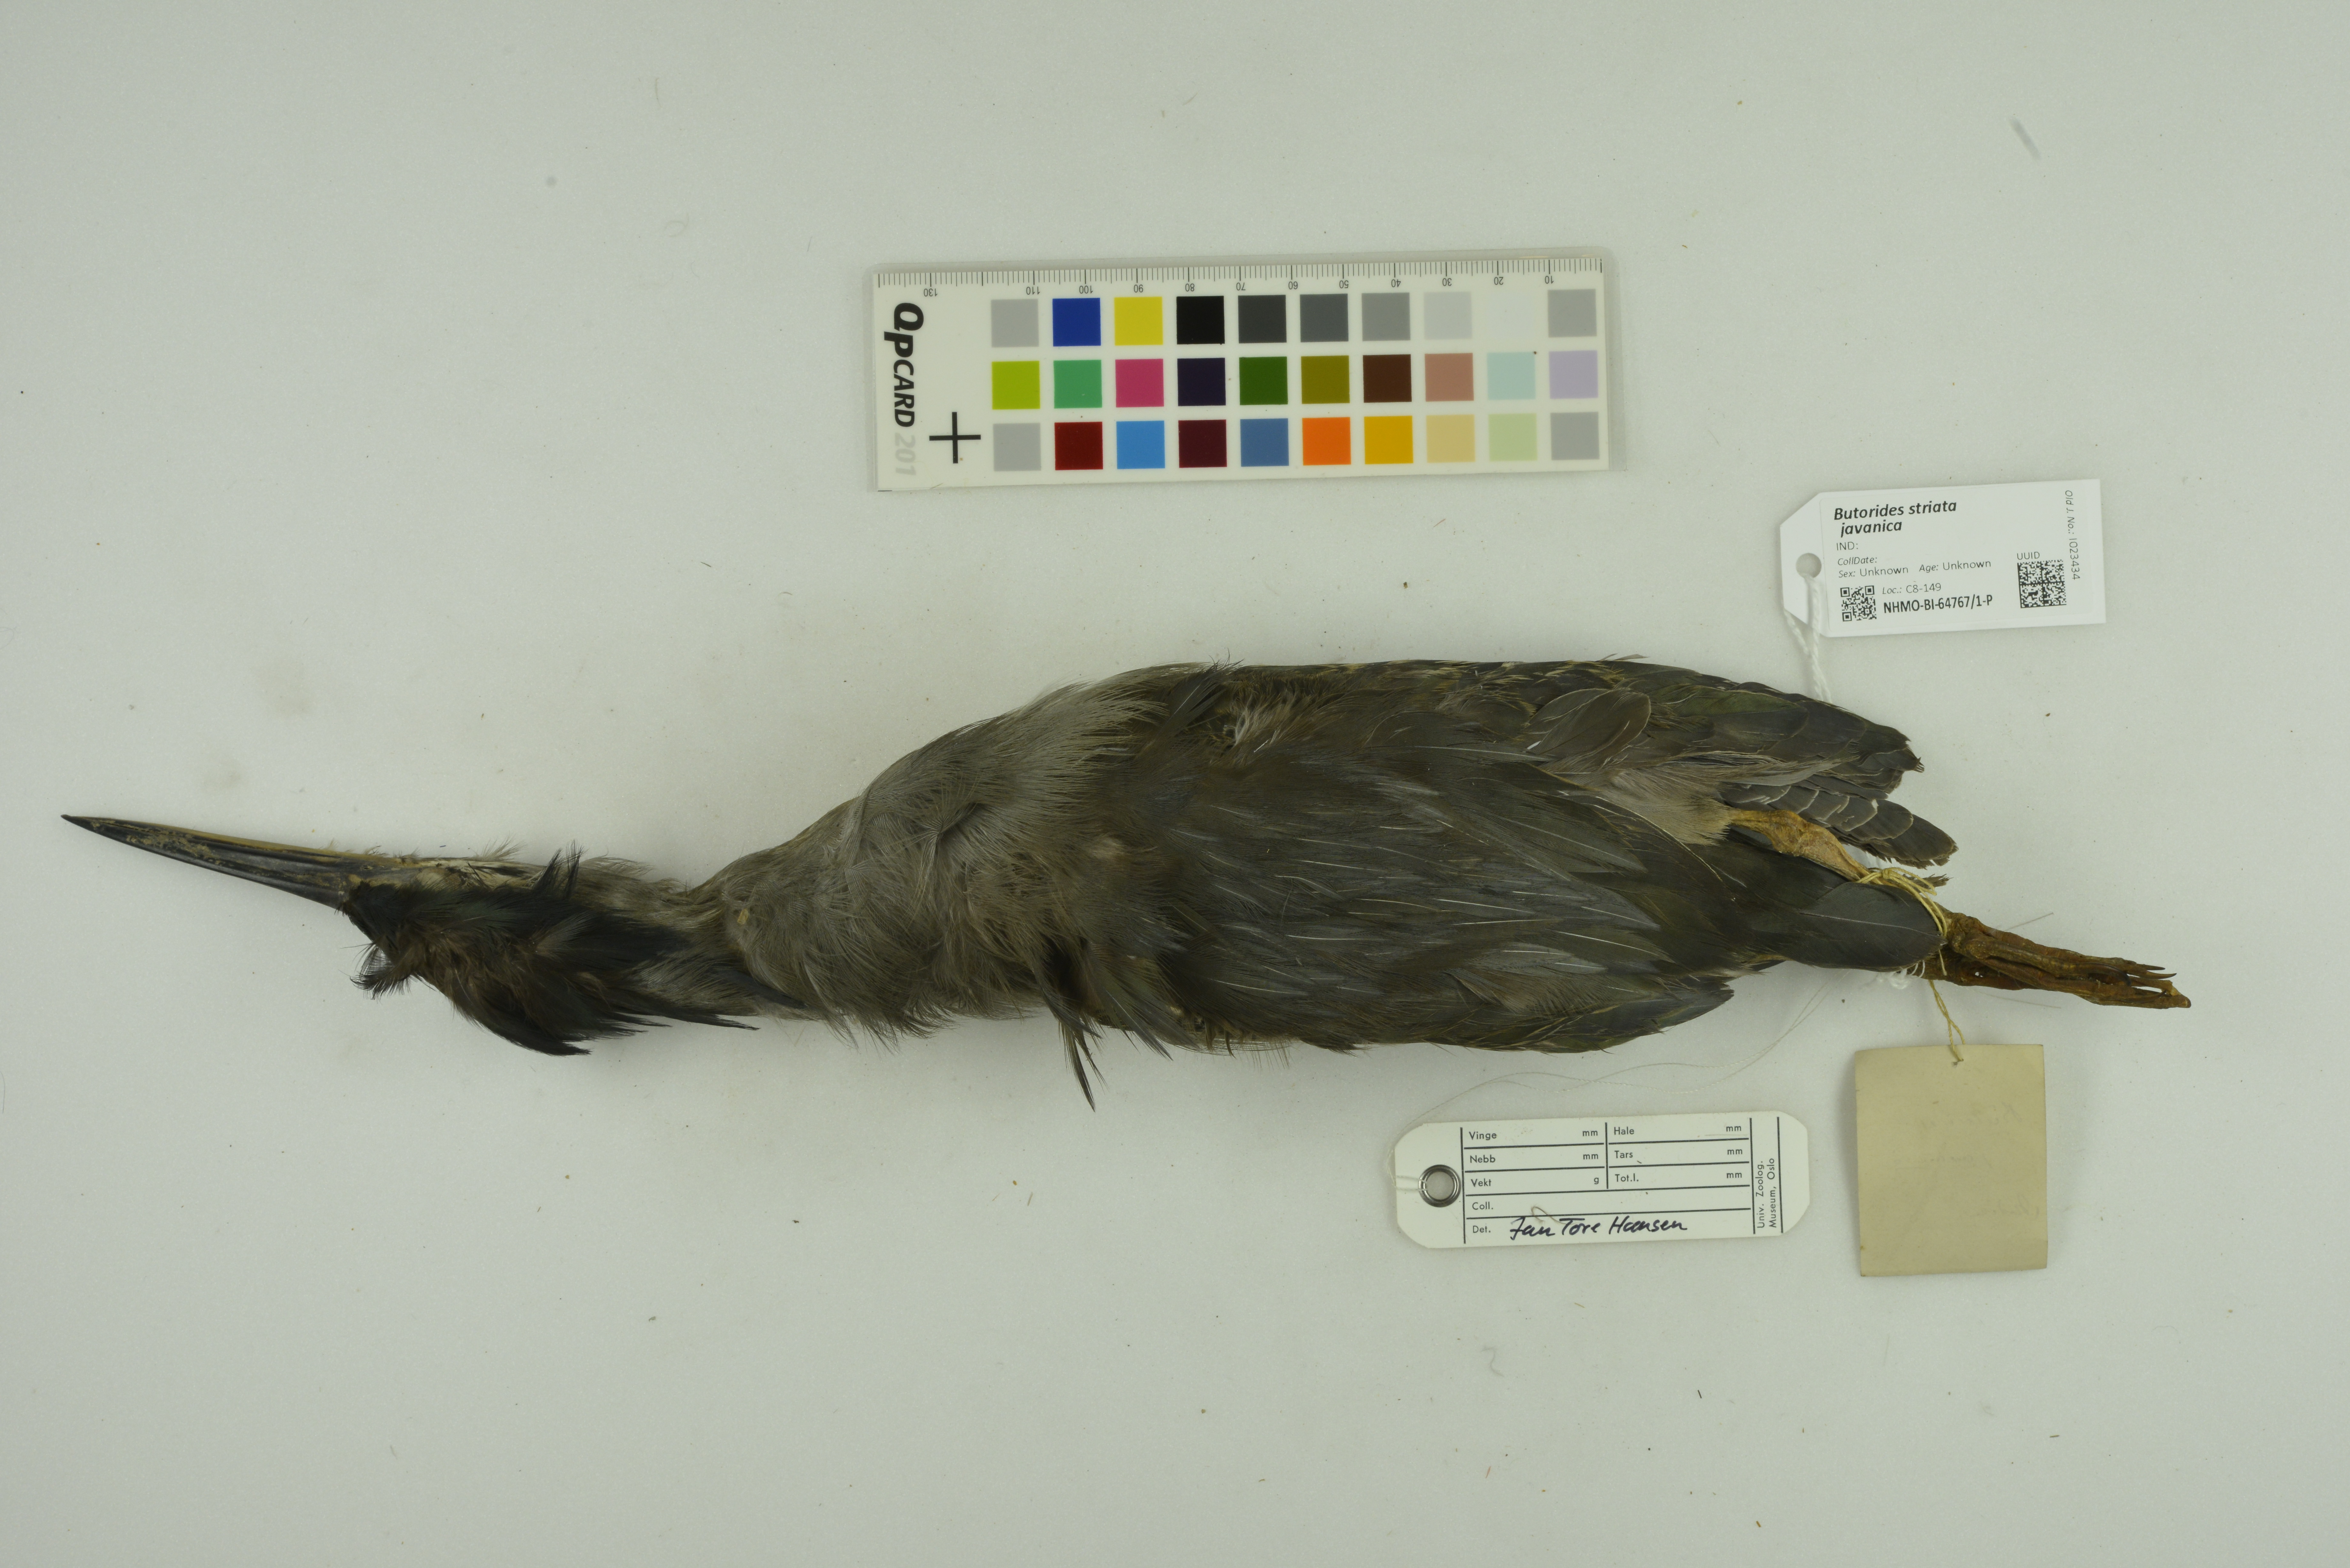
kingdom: Animalia
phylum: Chordata
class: Aves
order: Pelecaniformes
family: Ardeidae
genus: Butorides
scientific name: Butorides striata
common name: Striated heron
